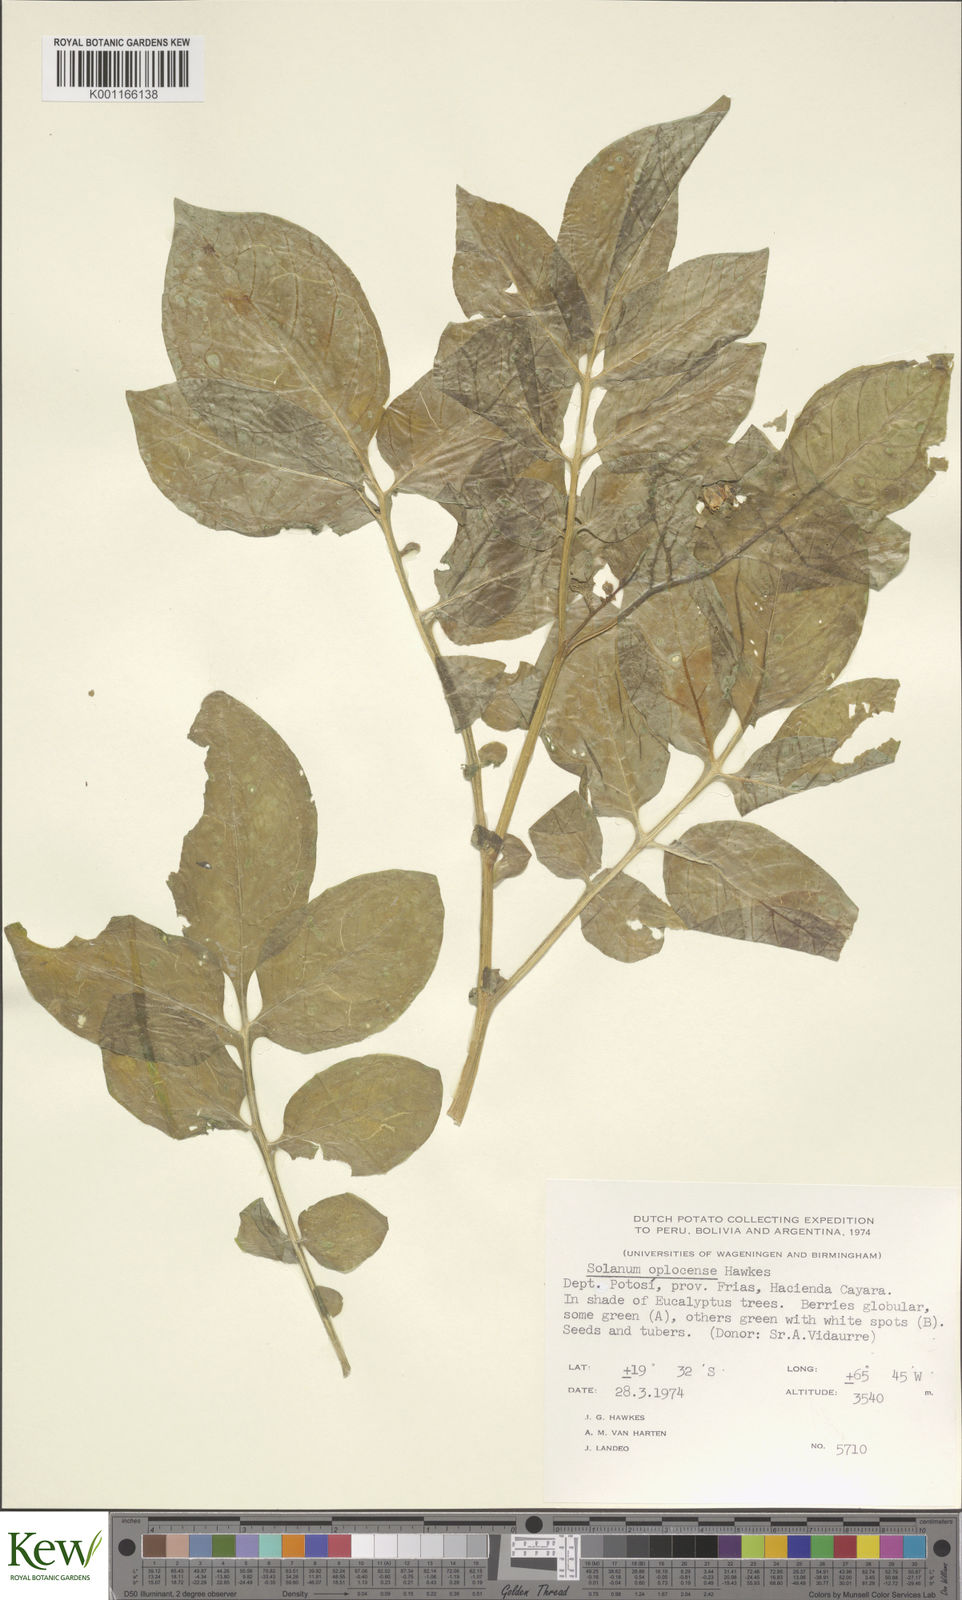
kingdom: Plantae
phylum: Tracheophyta
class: Magnoliopsida
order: Solanales
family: Solanaceae
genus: Solanum
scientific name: Solanum brevicaule
